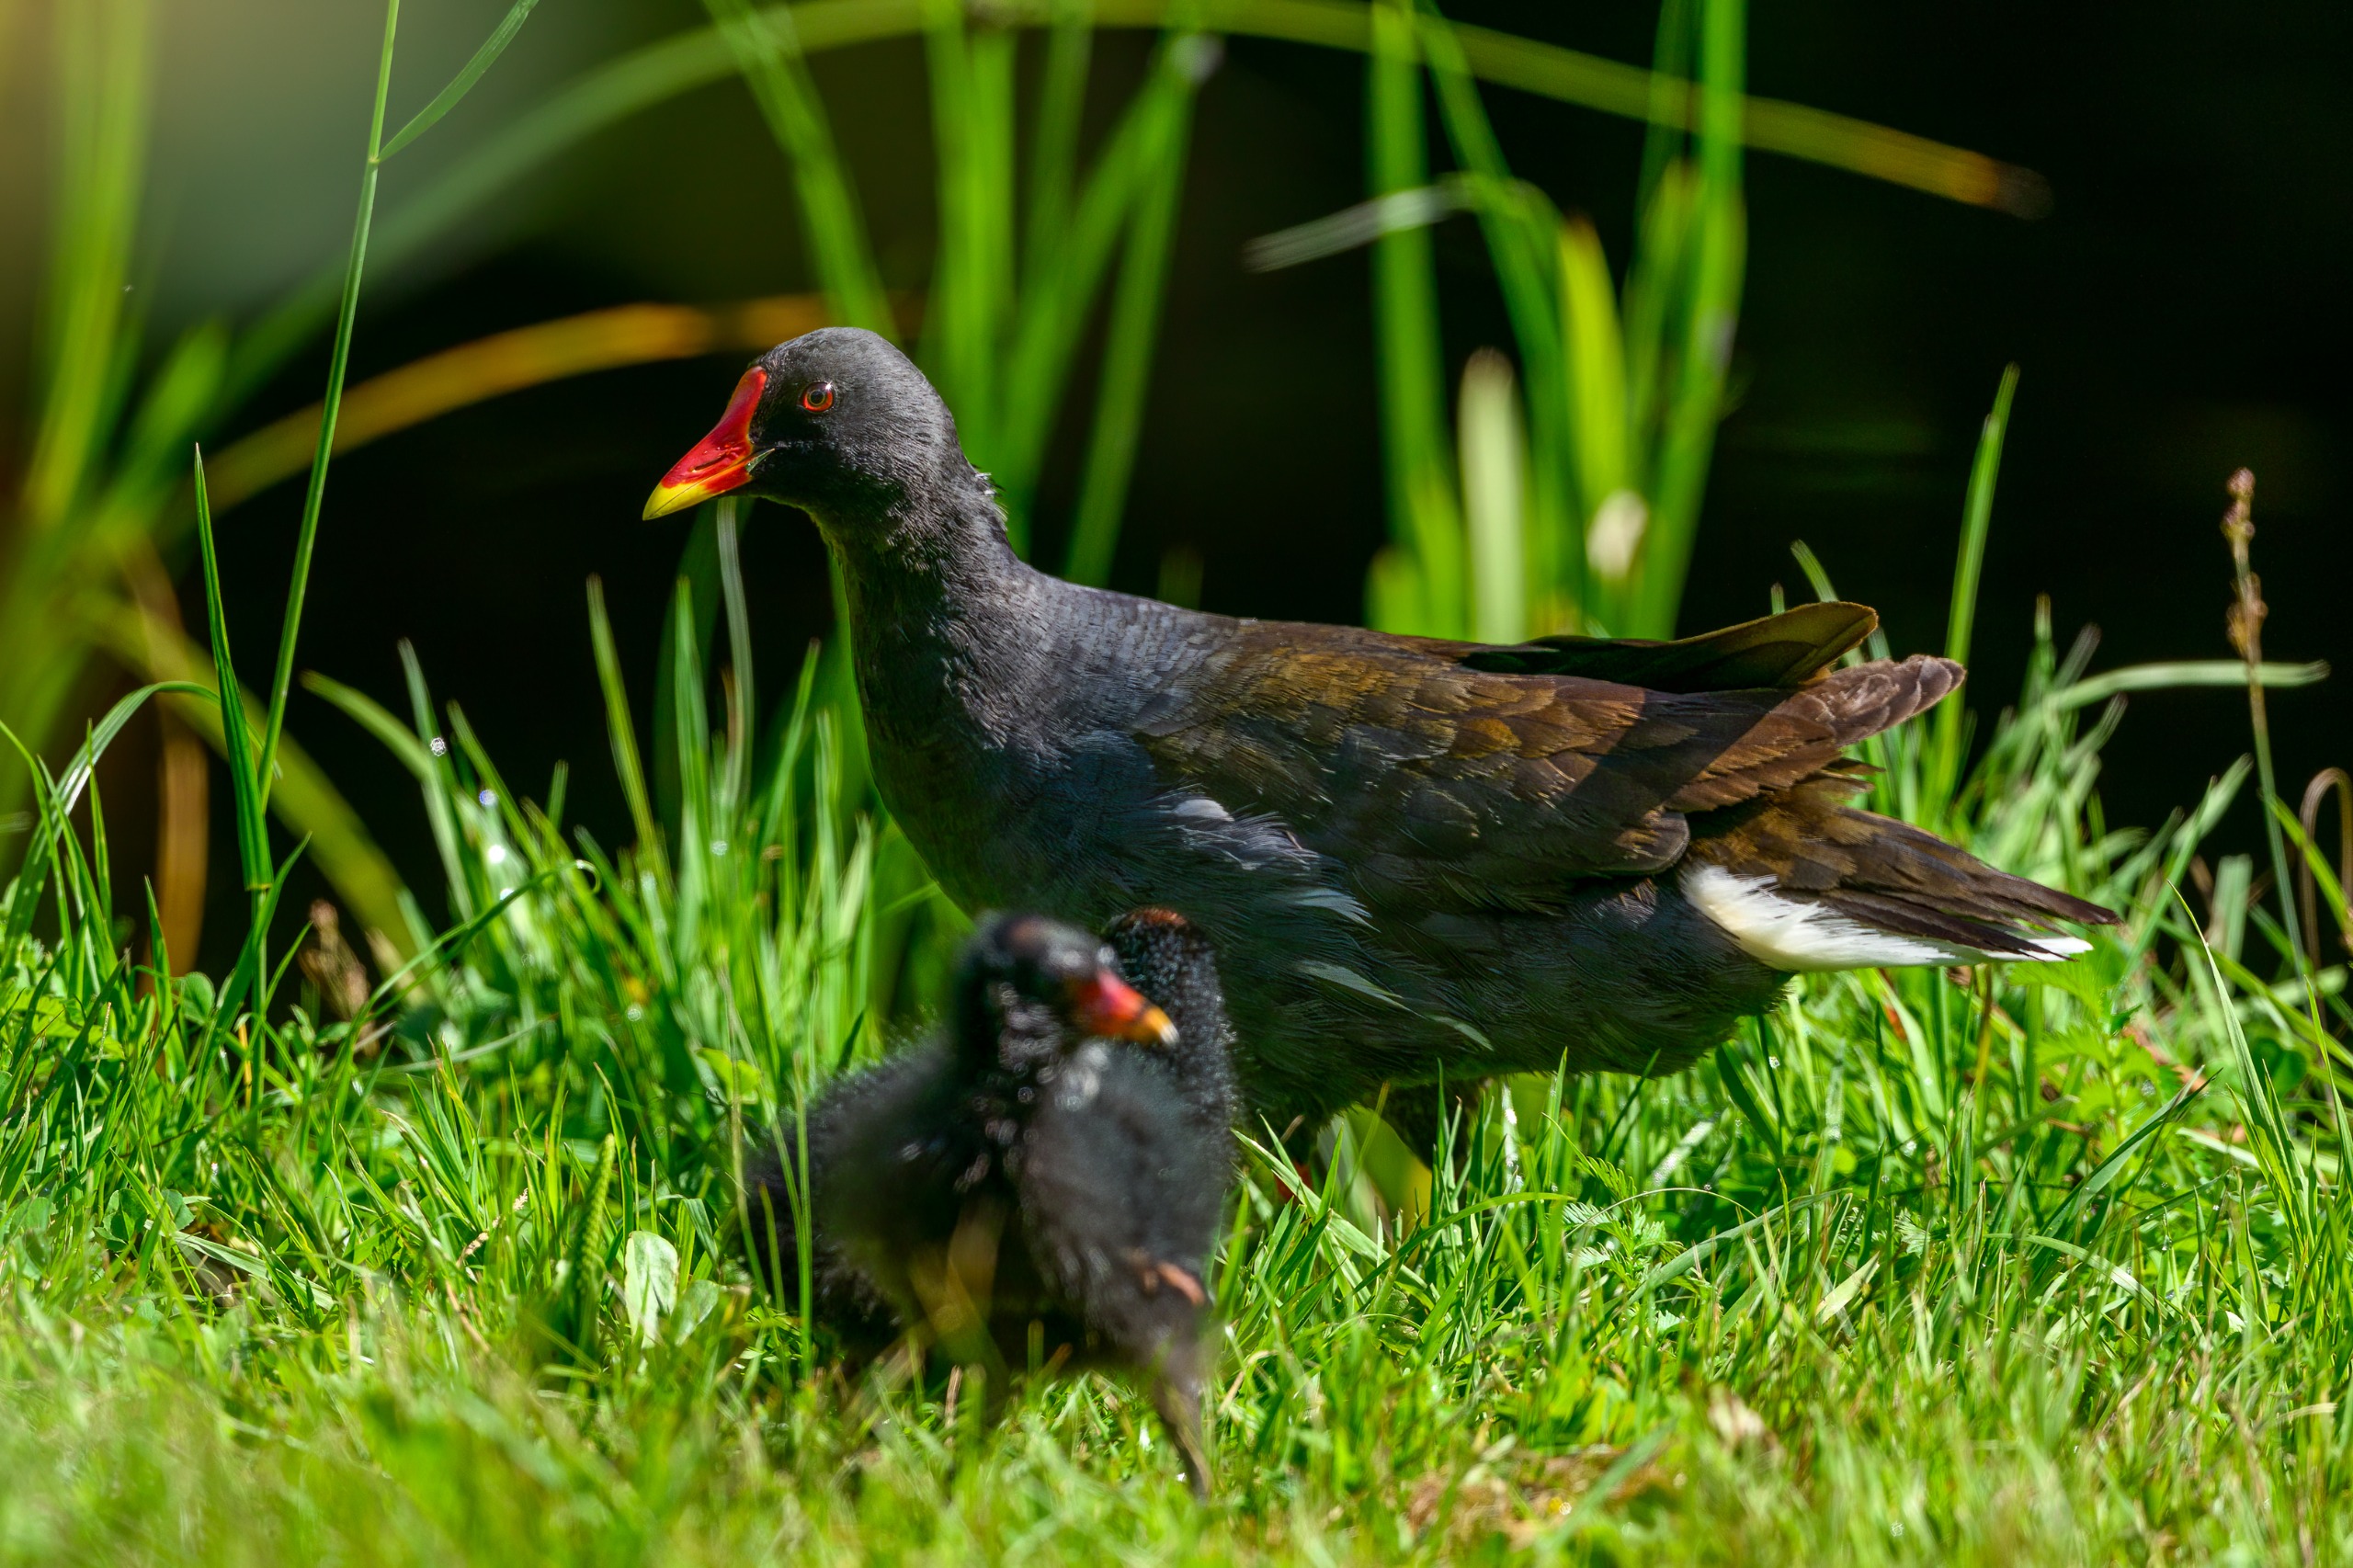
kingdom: Animalia
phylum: Chordata
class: Aves
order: Gruiformes
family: Rallidae
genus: Gallinula
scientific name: Gallinula chloropus
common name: Grønbenet rørhøne
